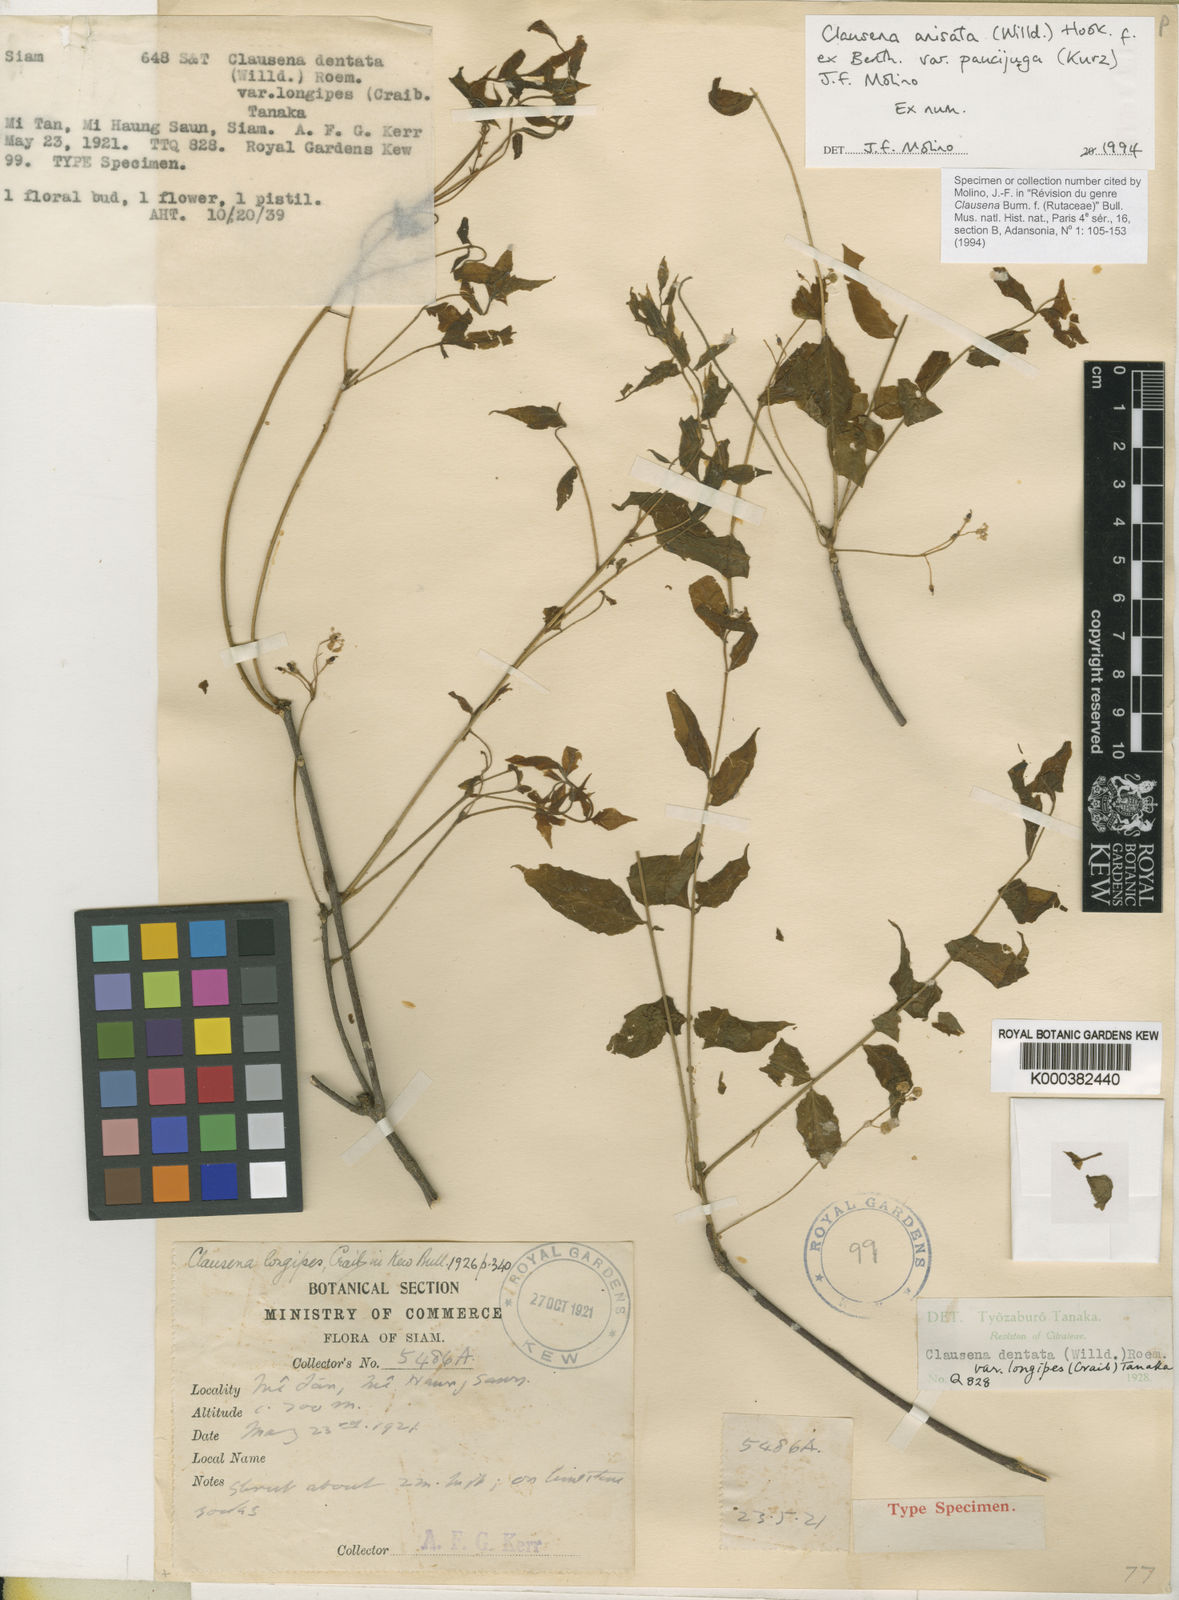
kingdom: Plantae
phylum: Tracheophyta
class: Magnoliopsida
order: Sapindales
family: Rutaceae
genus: Clausena
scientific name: Clausena anisata
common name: Horsewood
